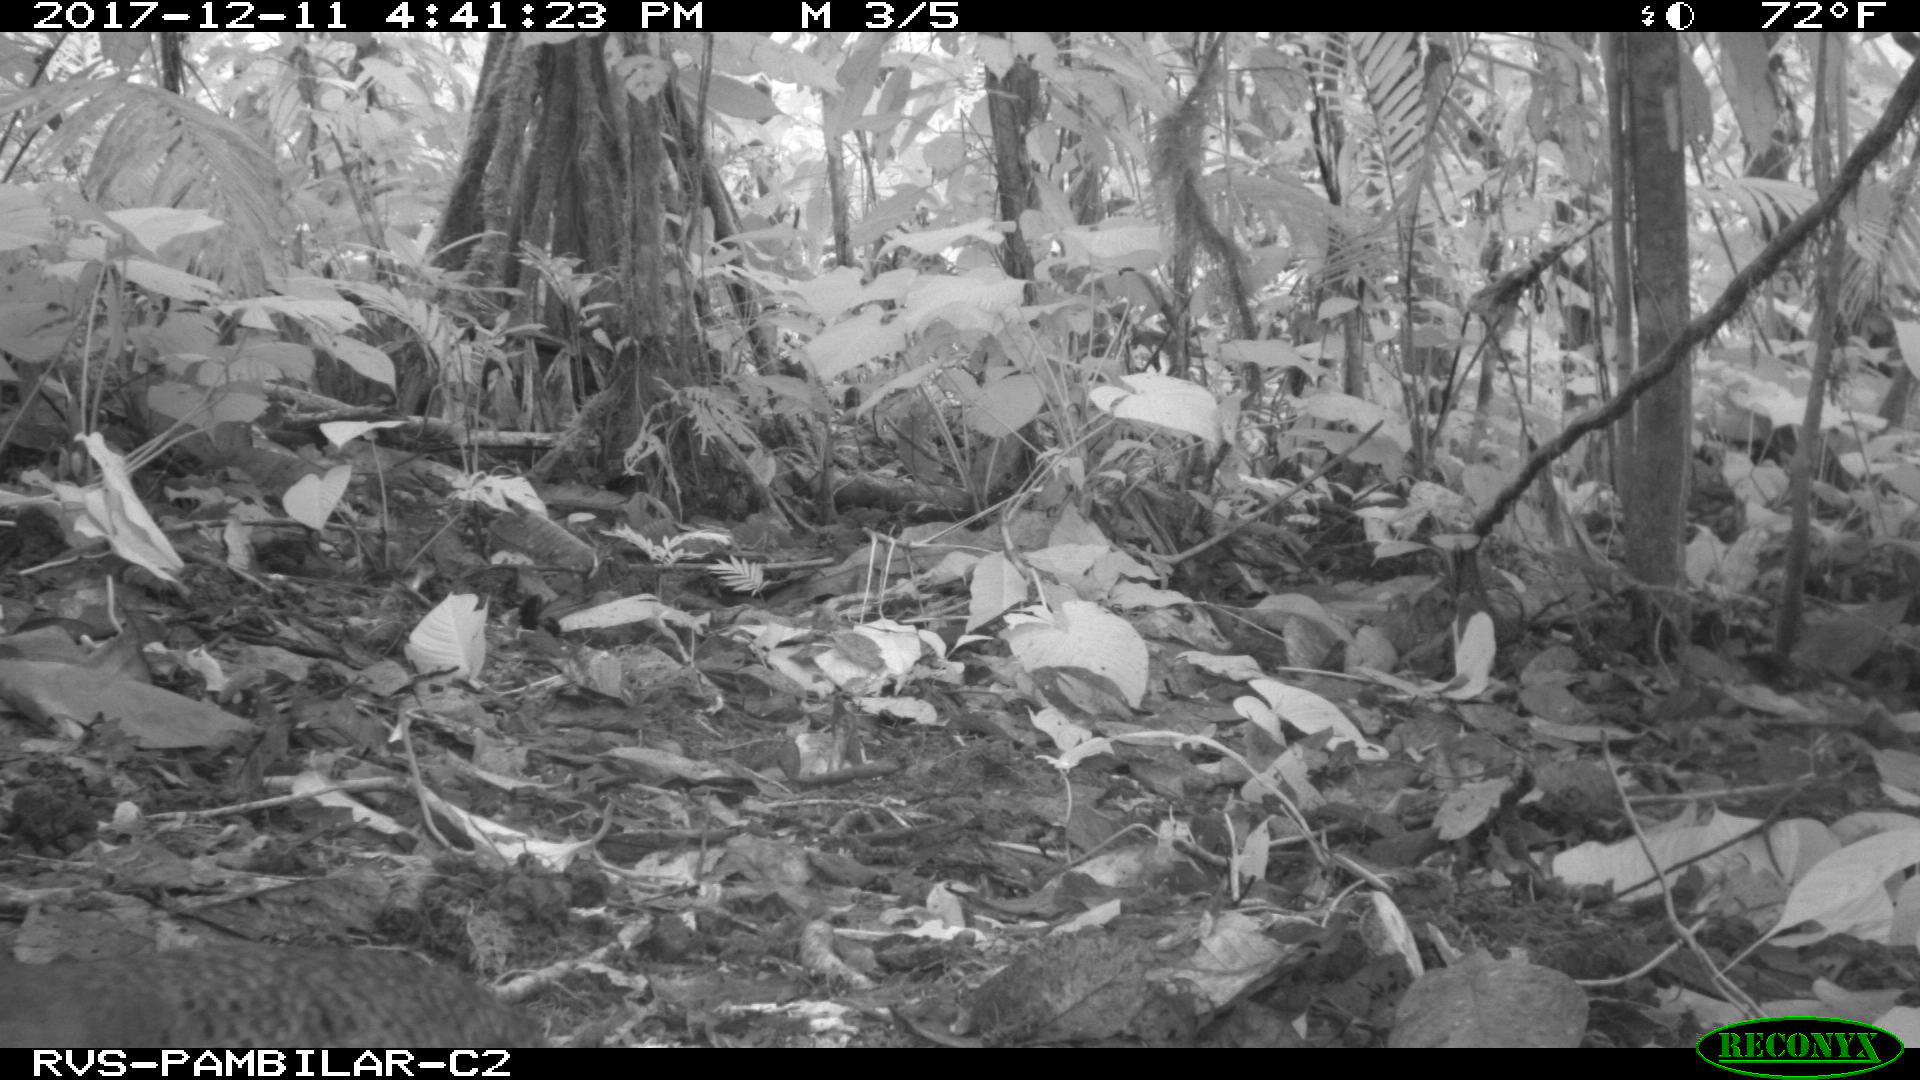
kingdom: Animalia
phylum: Chordata
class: Aves
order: Tinamiformes
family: Tinamidae
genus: Tinamus
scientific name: Tinamus major
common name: Great tinamou
